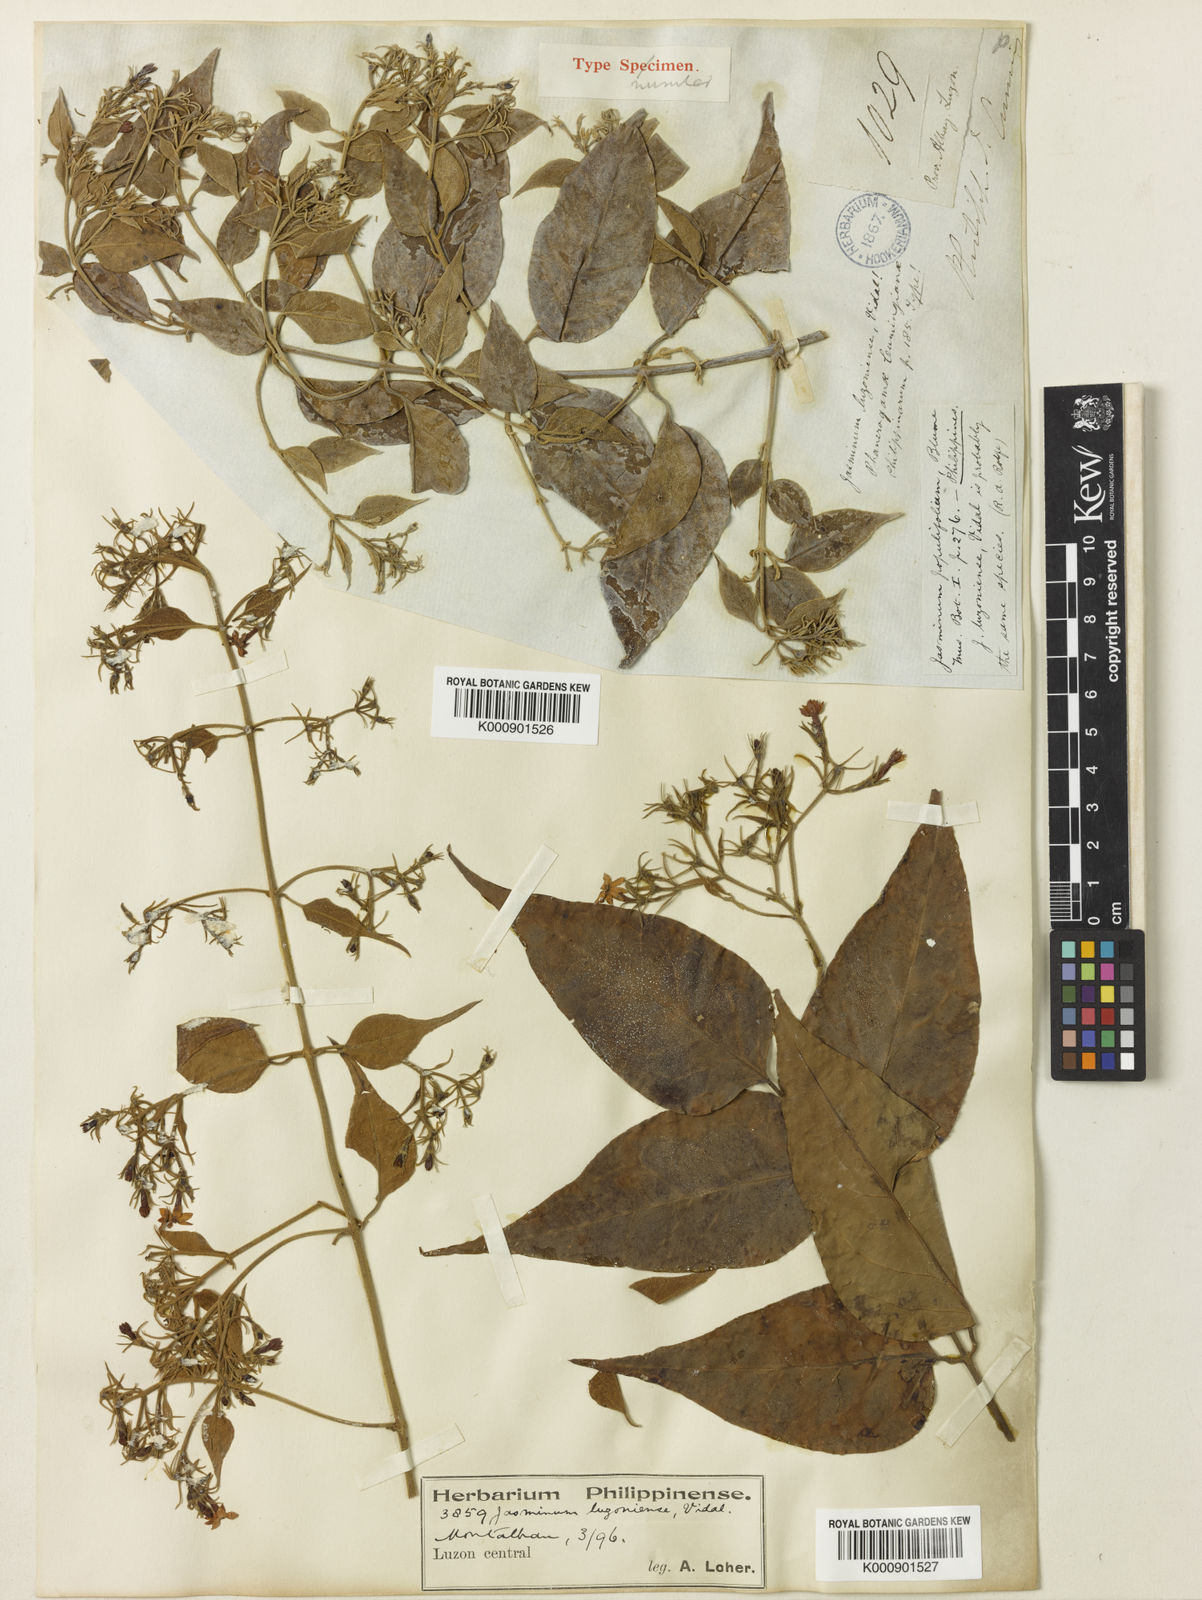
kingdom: Plantae
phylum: Tracheophyta
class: Magnoliopsida
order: Lamiales
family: Oleaceae
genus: Jasminum
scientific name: Jasminum populifolium
